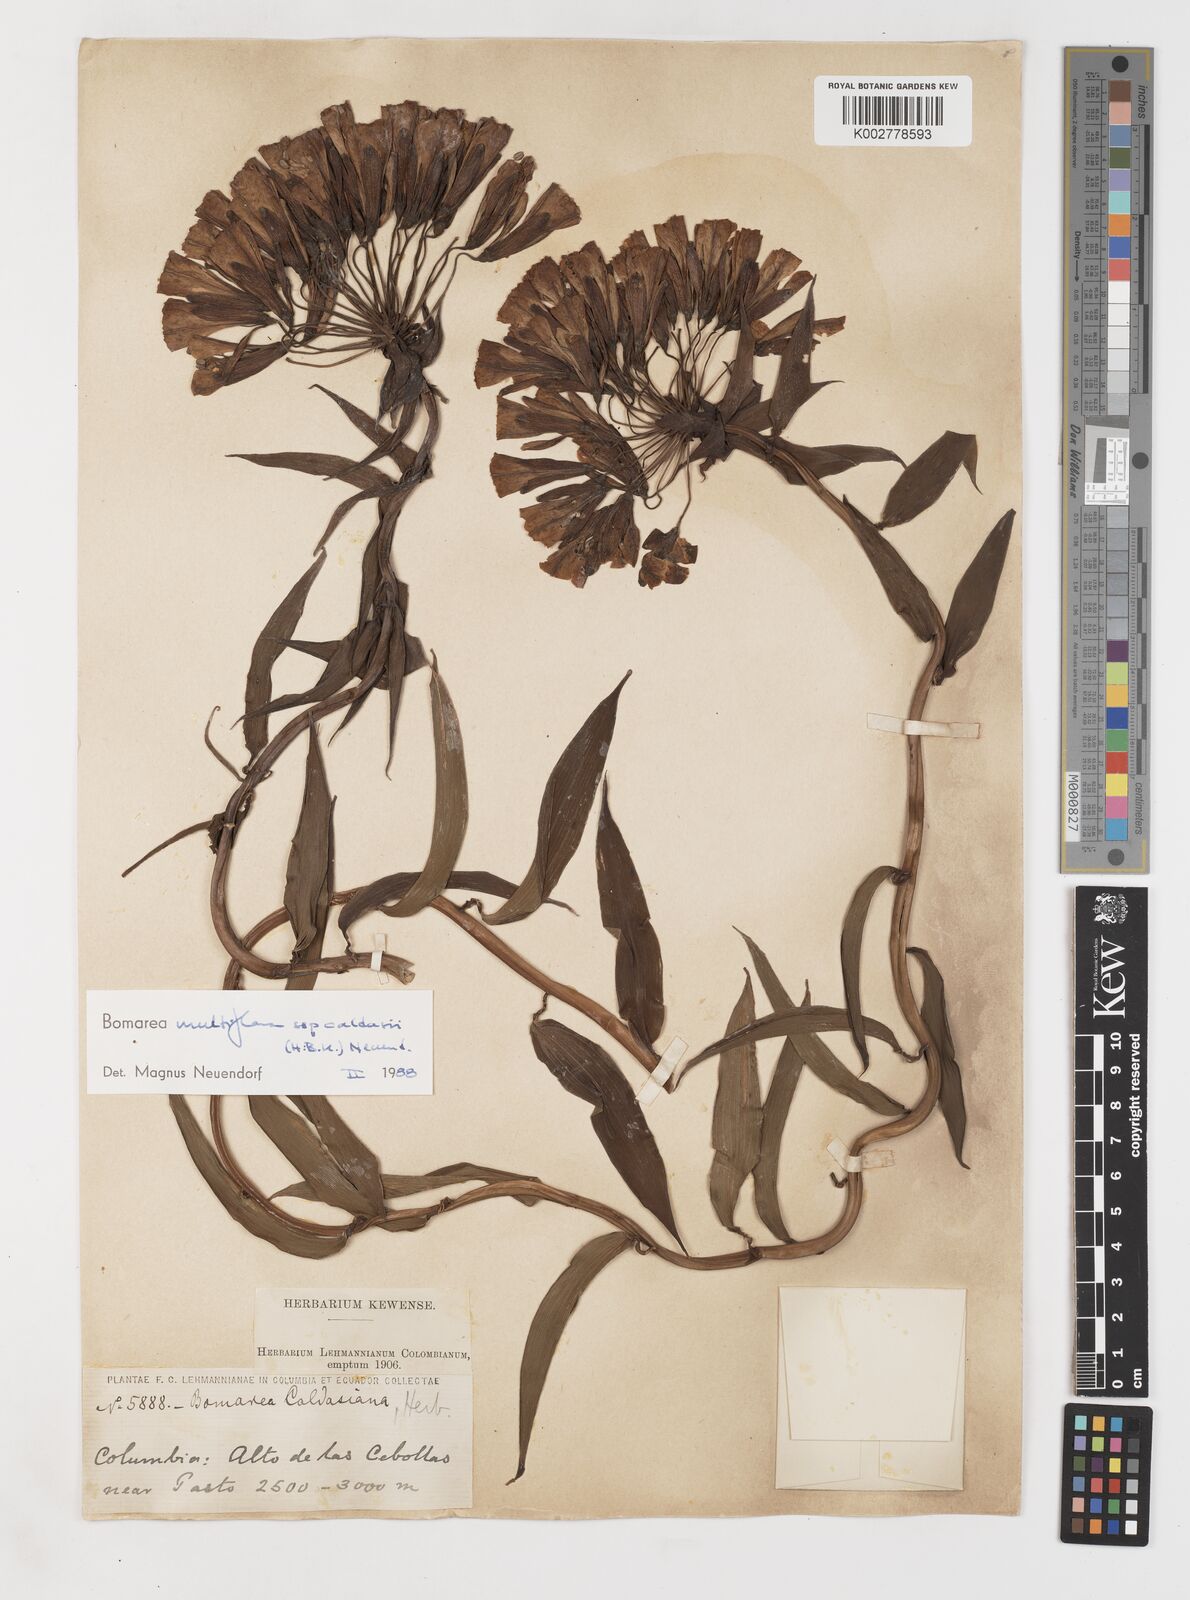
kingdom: Plantae
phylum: Tracheophyta
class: Liliopsida
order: Liliales
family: Alstroemeriaceae
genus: Bomarea
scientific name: Bomarea multiflora
